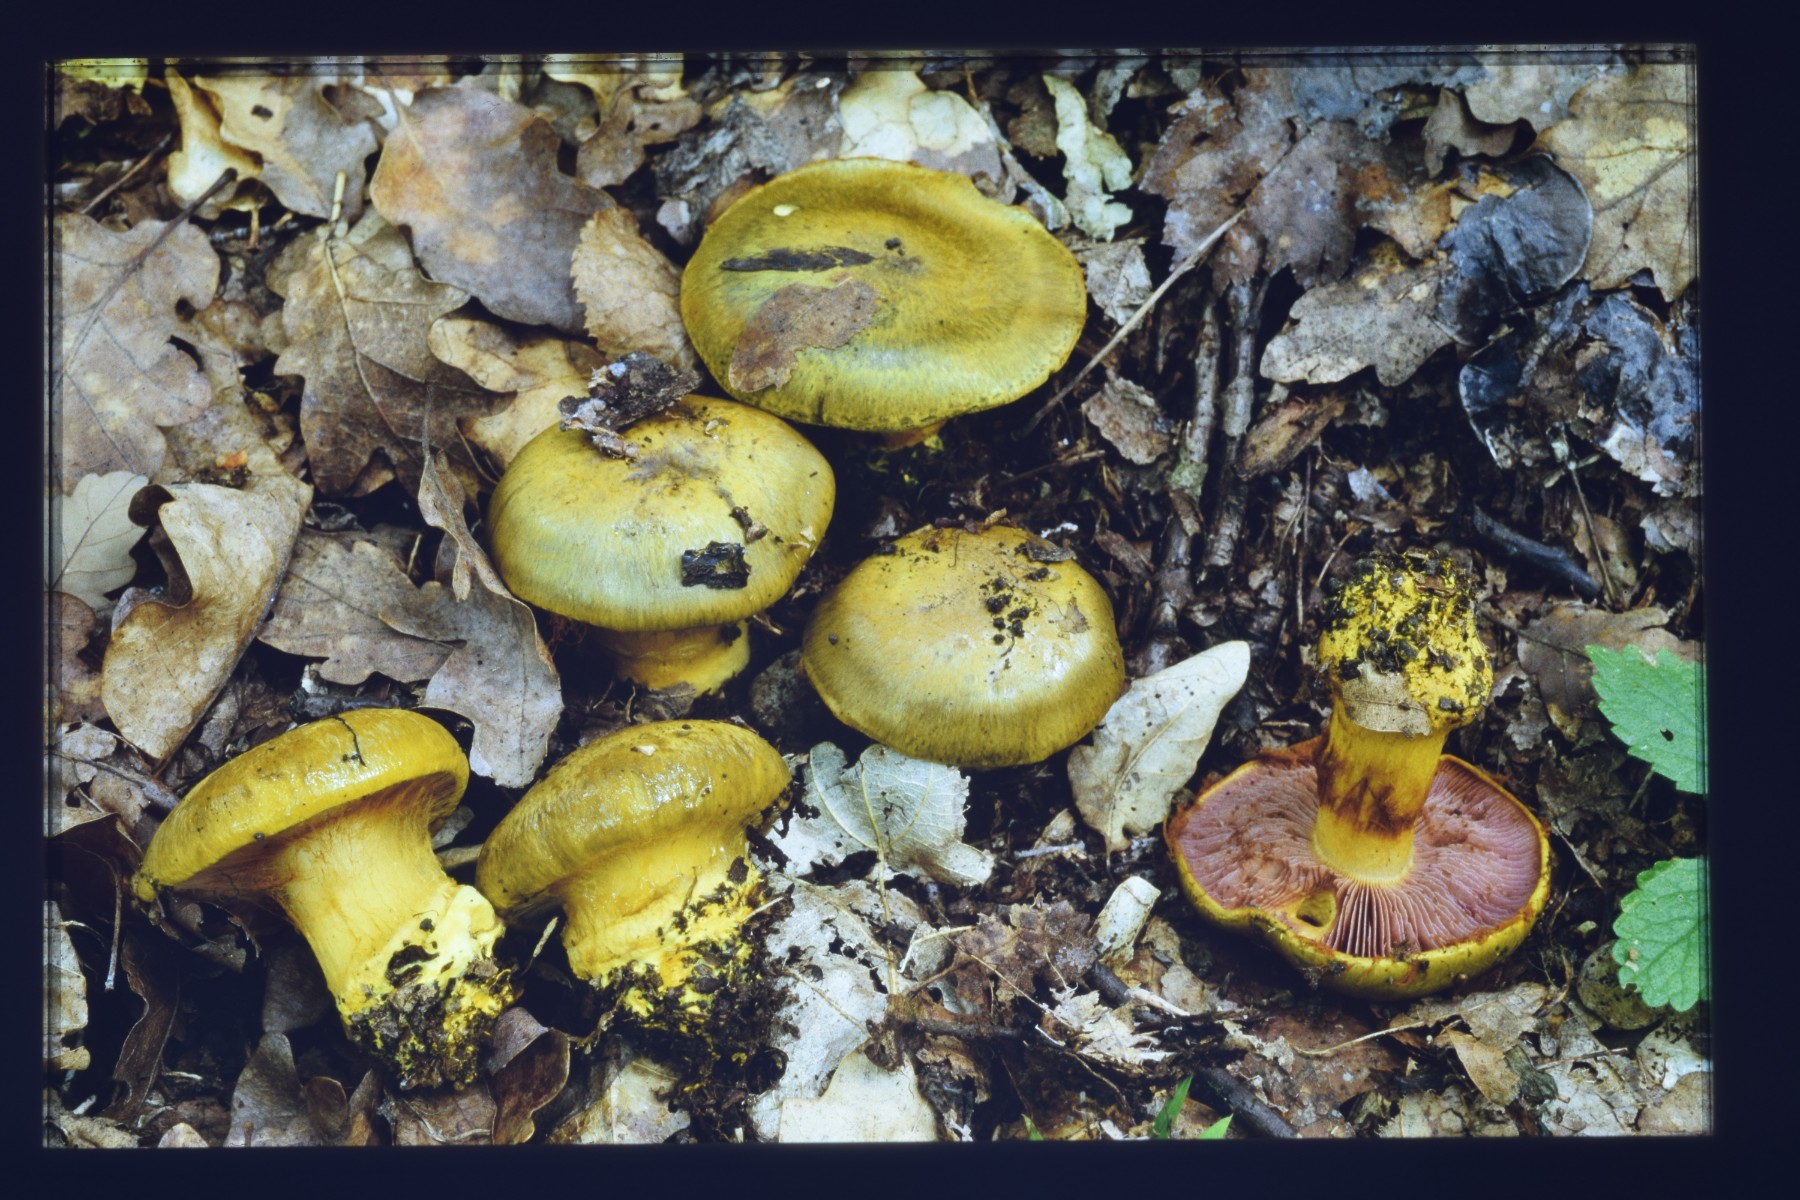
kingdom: Fungi
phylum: Basidiomycota
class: Agaricomycetes
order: Agaricales
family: Cortinariaceae
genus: Calonarius
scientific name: Calonarius ionochlorus
